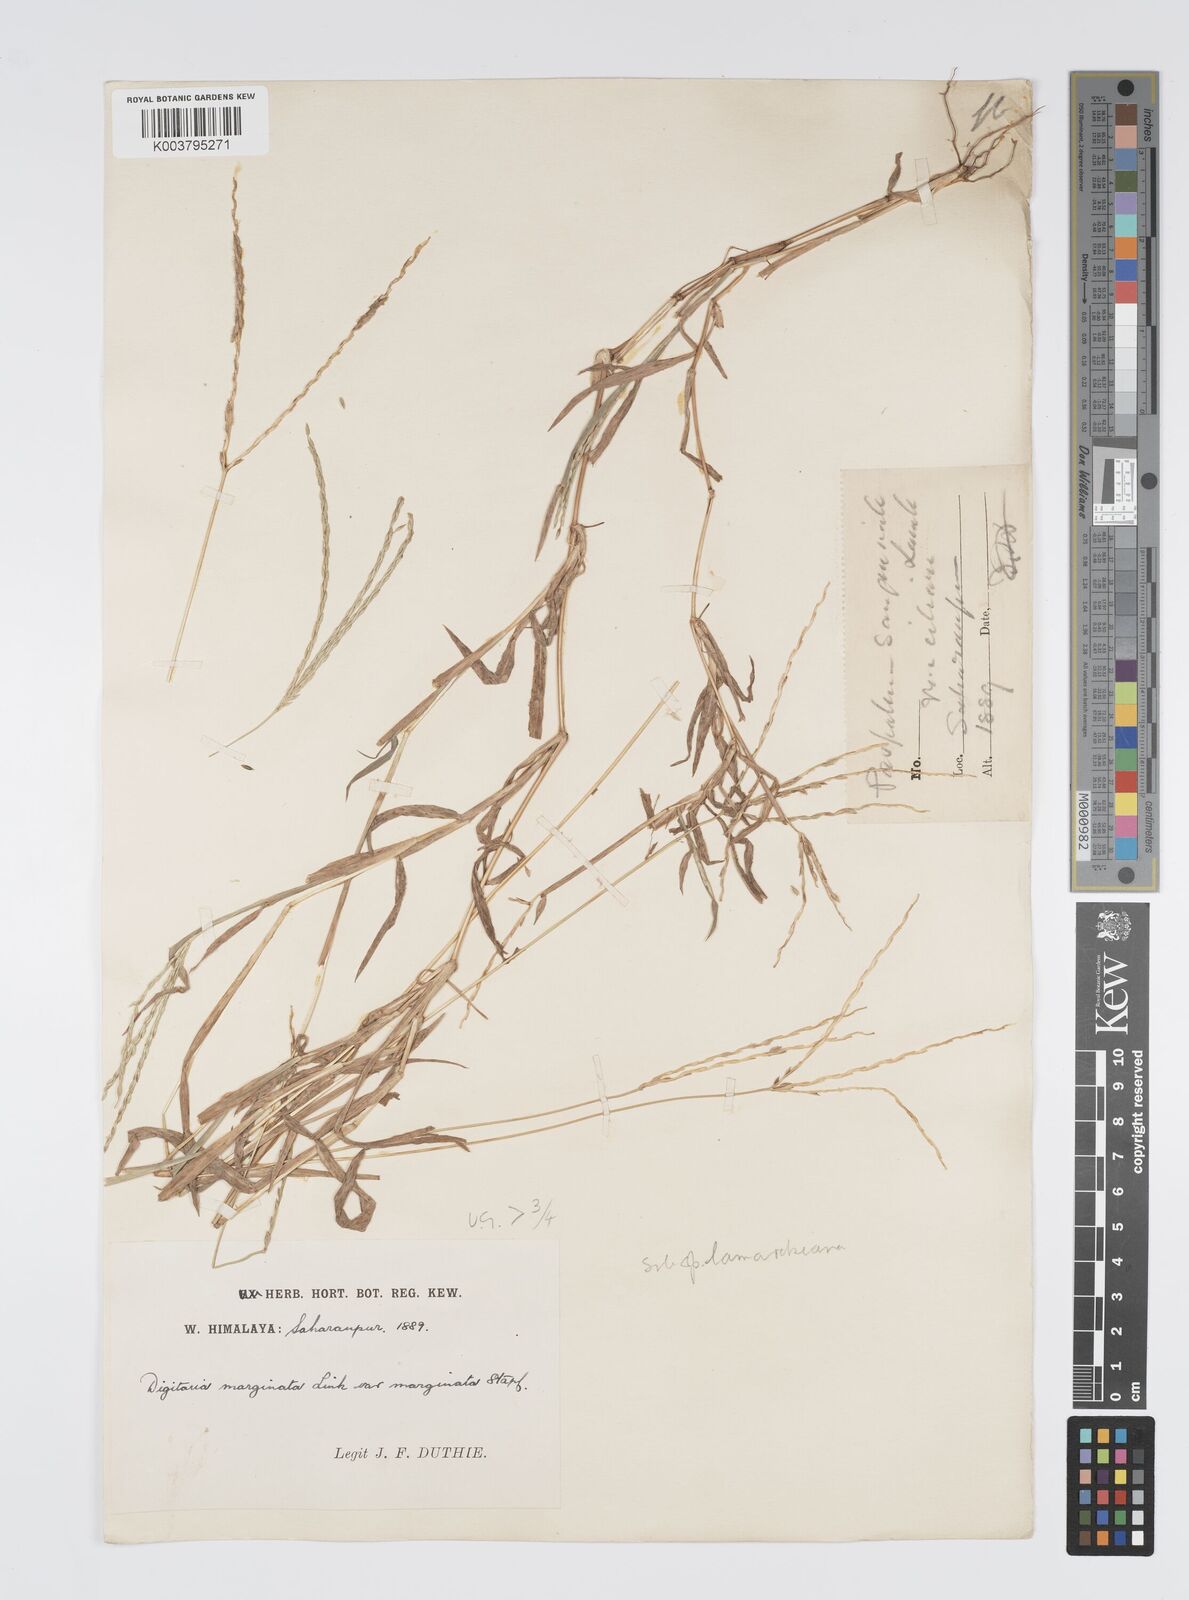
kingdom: Plantae
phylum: Tracheophyta
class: Liliopsida
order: Poales
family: Poaceae
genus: Digitaria
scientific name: Digitaria ciliaris
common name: Tropical finger-grass
